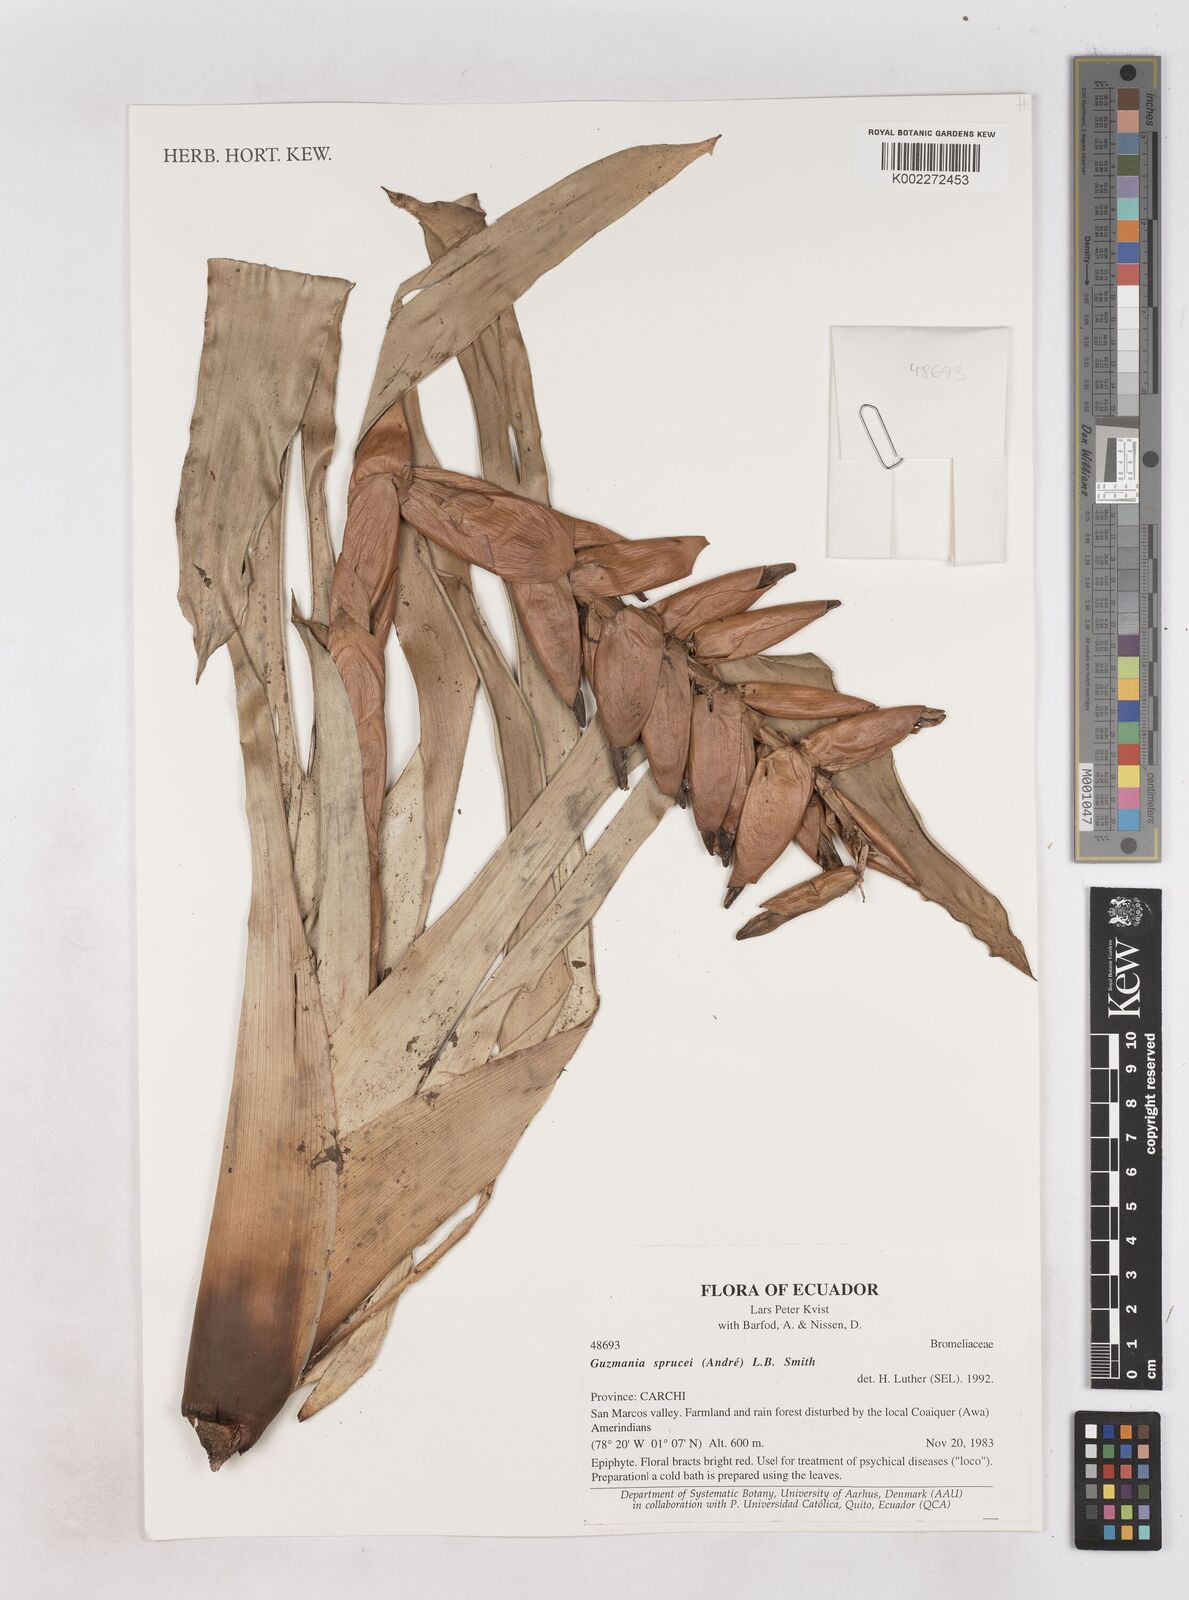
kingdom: Plantae
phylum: Tracheophyta
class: Liliopsida
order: Poales
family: Bromeliaceae
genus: Guzmania
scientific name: Guzmania sprucei
